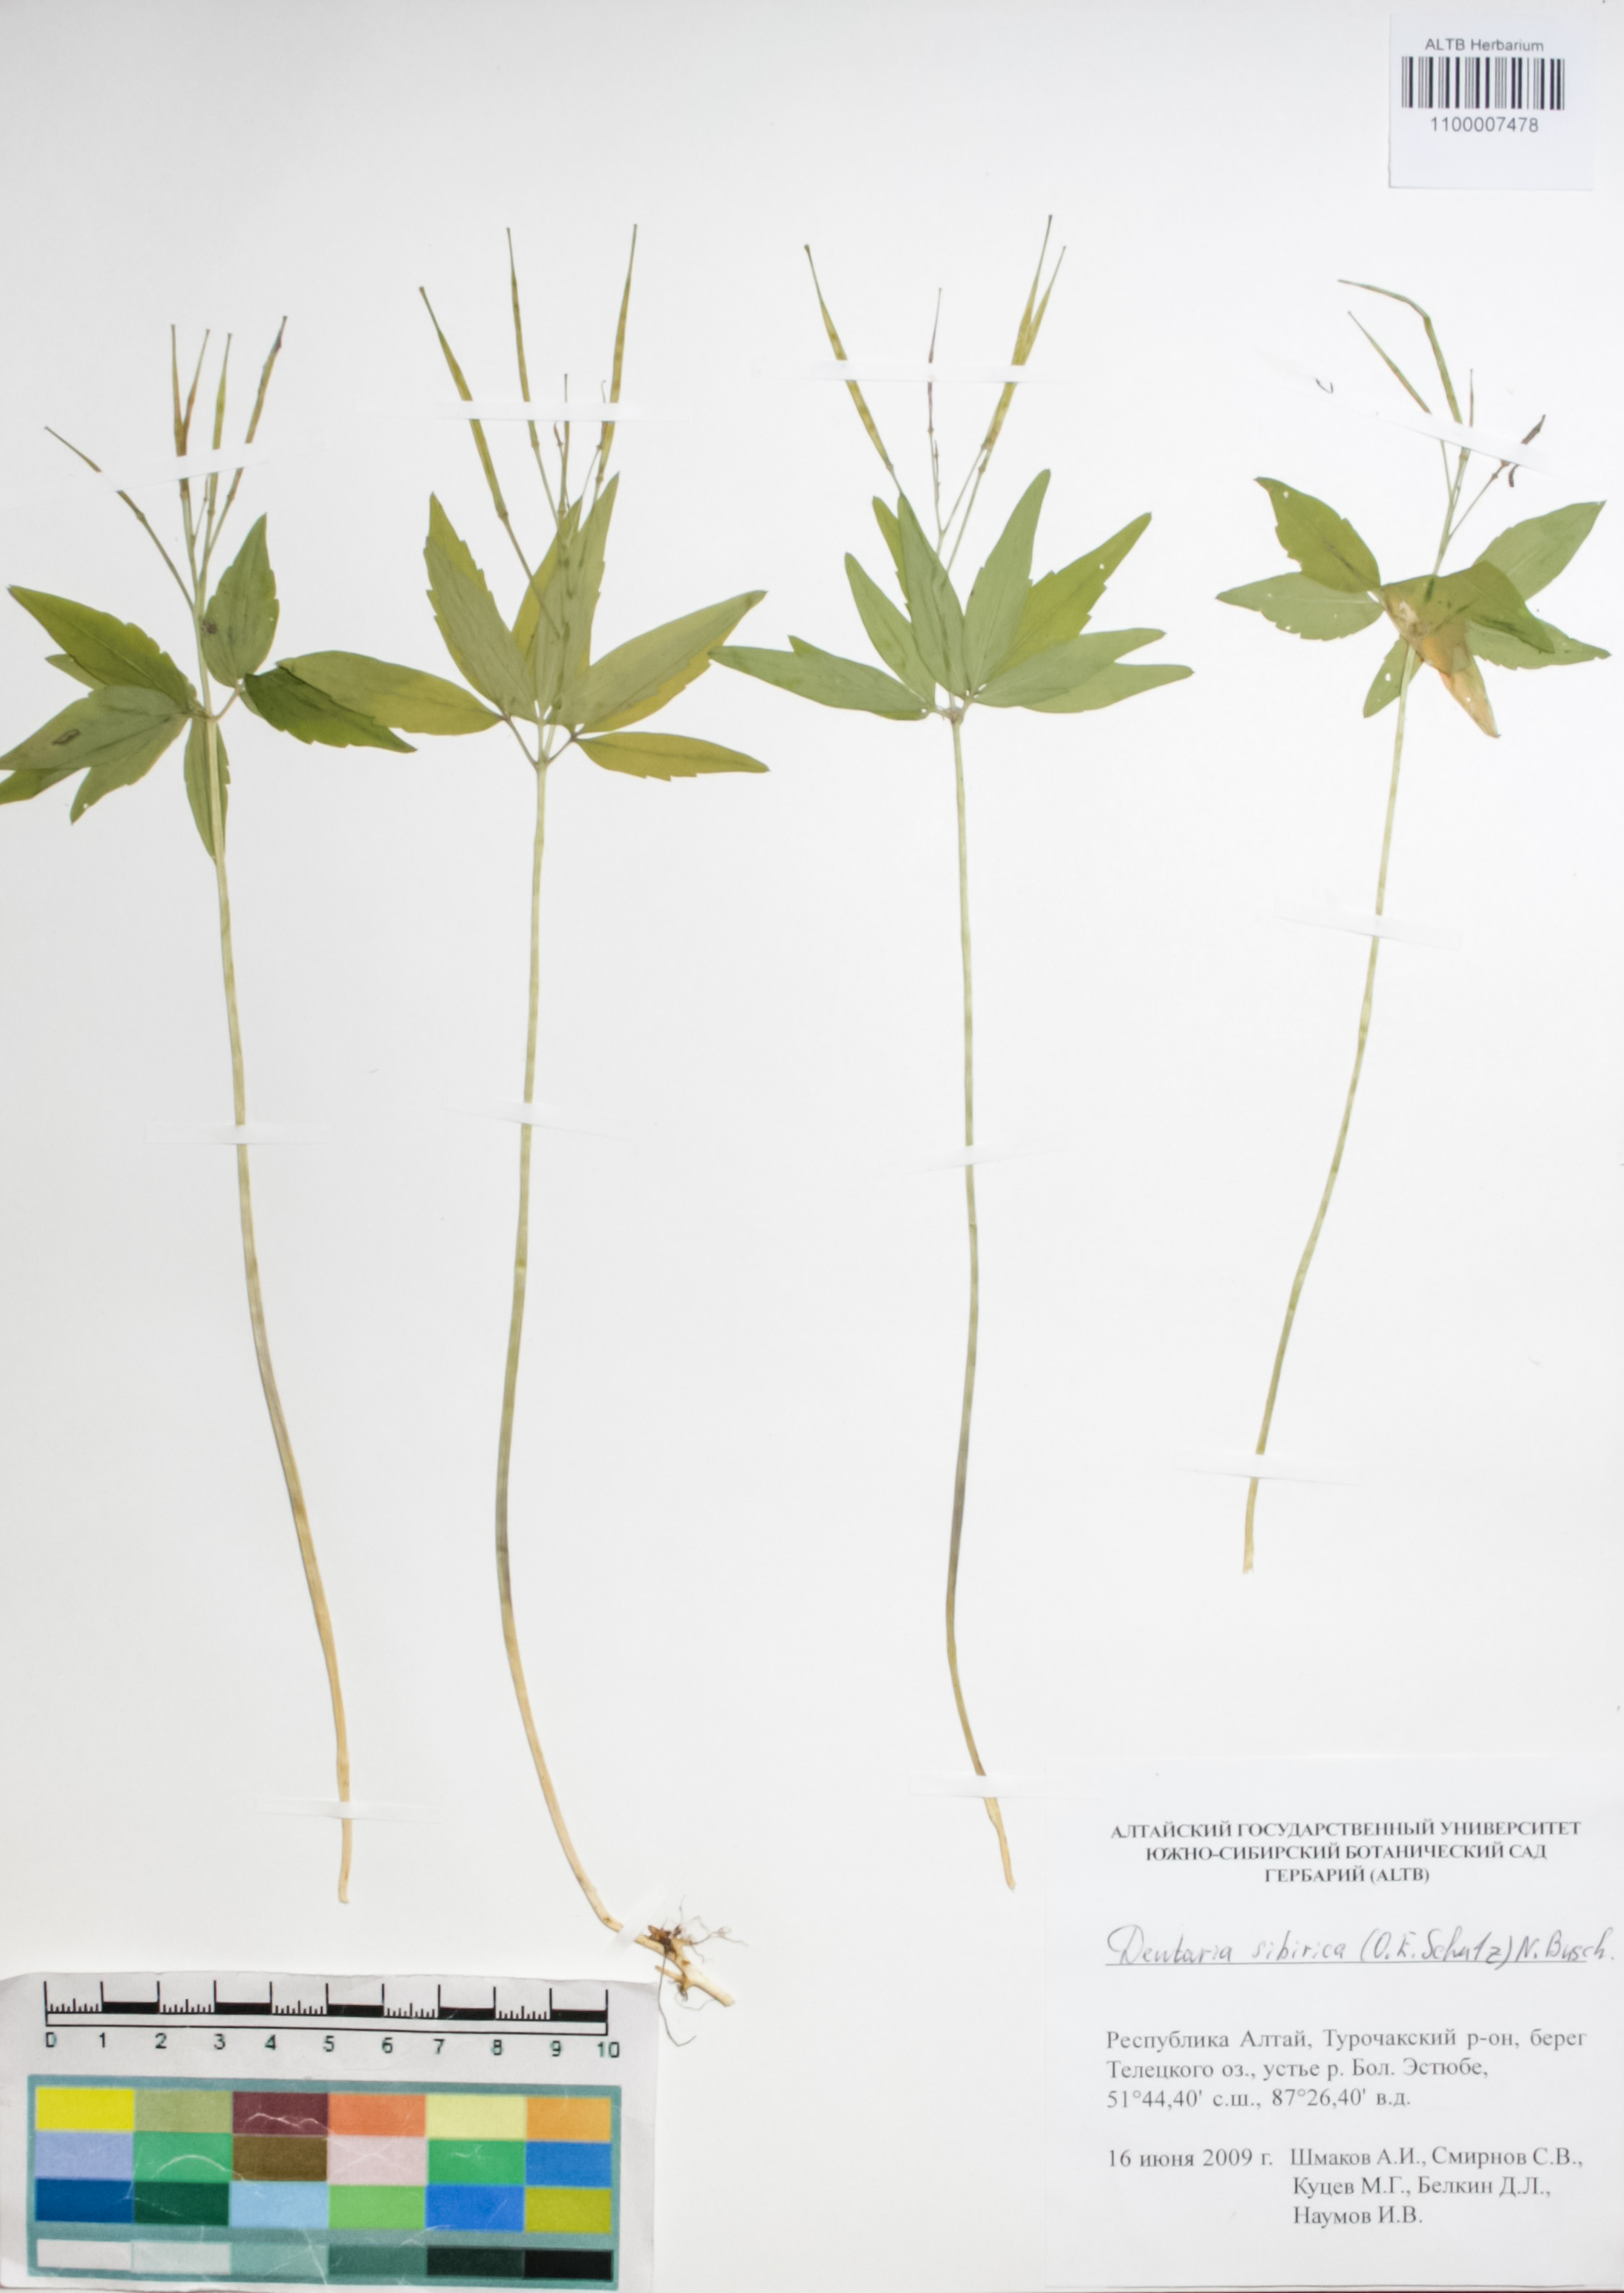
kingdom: Plantae
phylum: Tracheophyta
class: Magnoliopsida
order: Brassicales
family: Brassicaceae
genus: Cardamine
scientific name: Cardamine glanduligera
